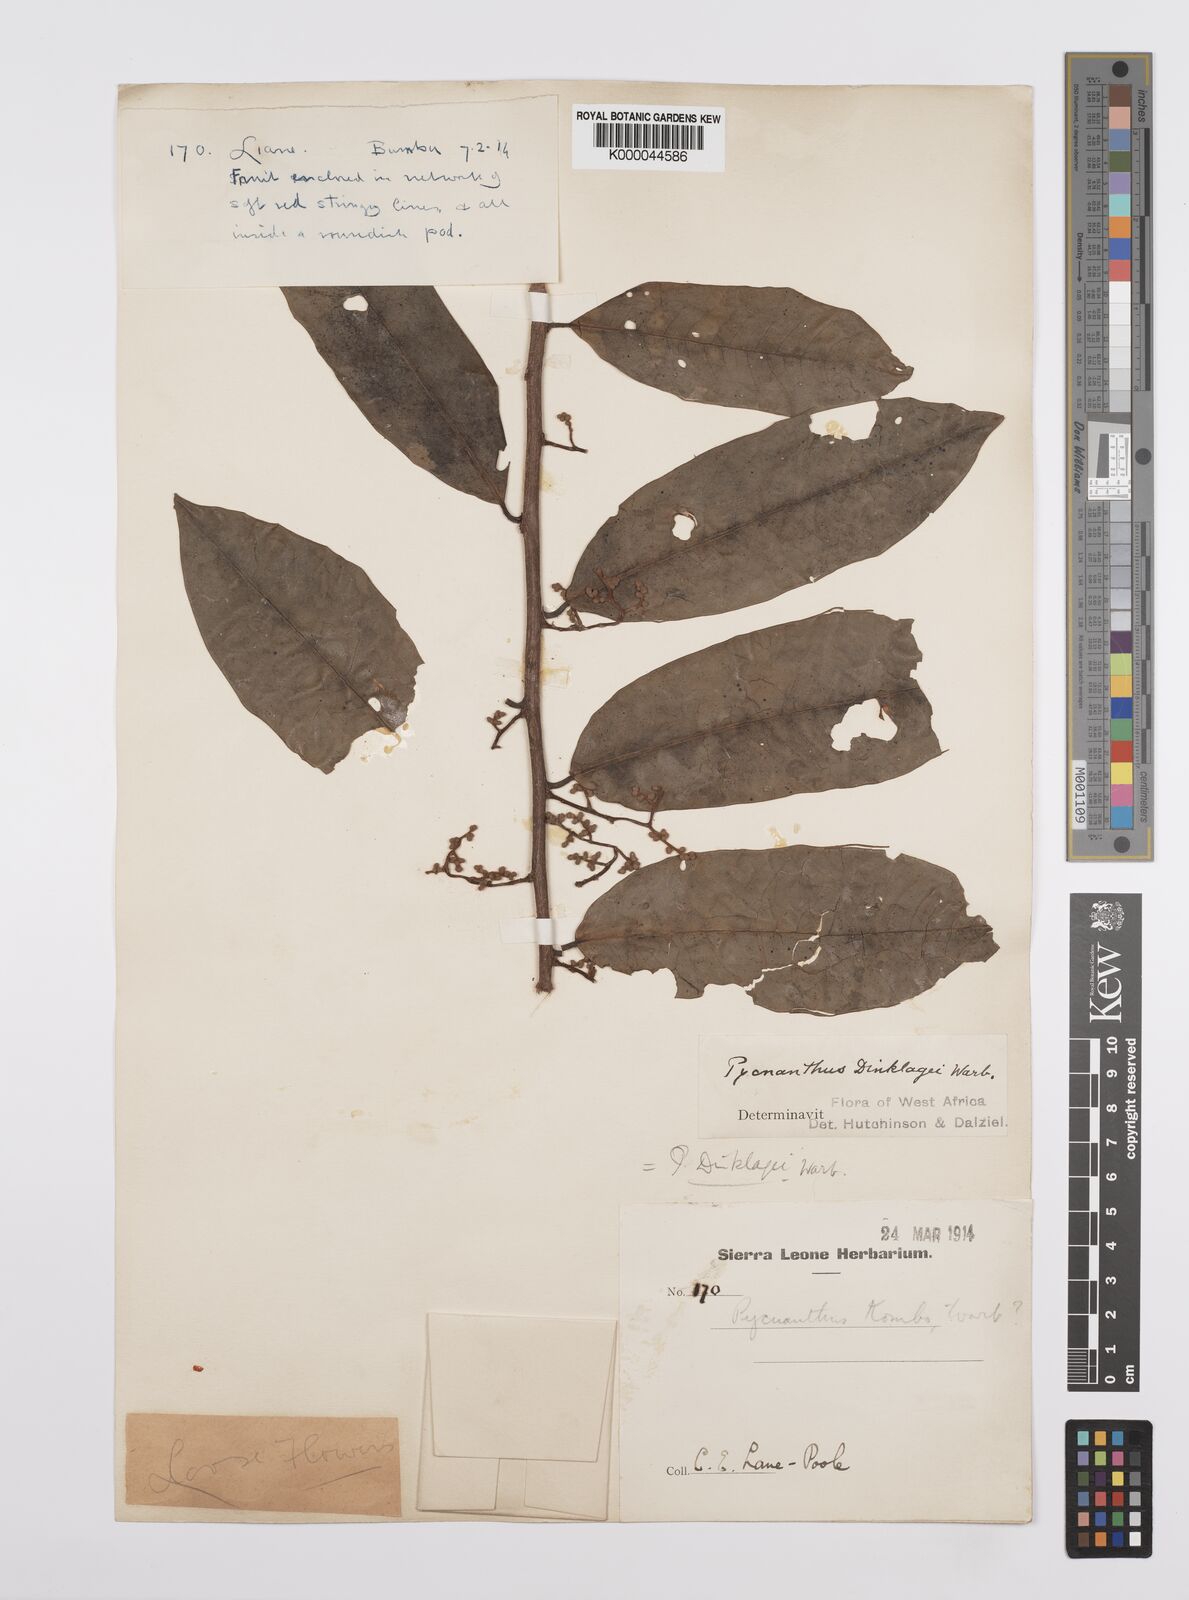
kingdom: Plantae
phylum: Tracheophyta
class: Magnoliopsida
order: Magnoliales
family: Myristicaceae
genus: Pycnanthus
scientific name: Pycnanthus dinklagei
